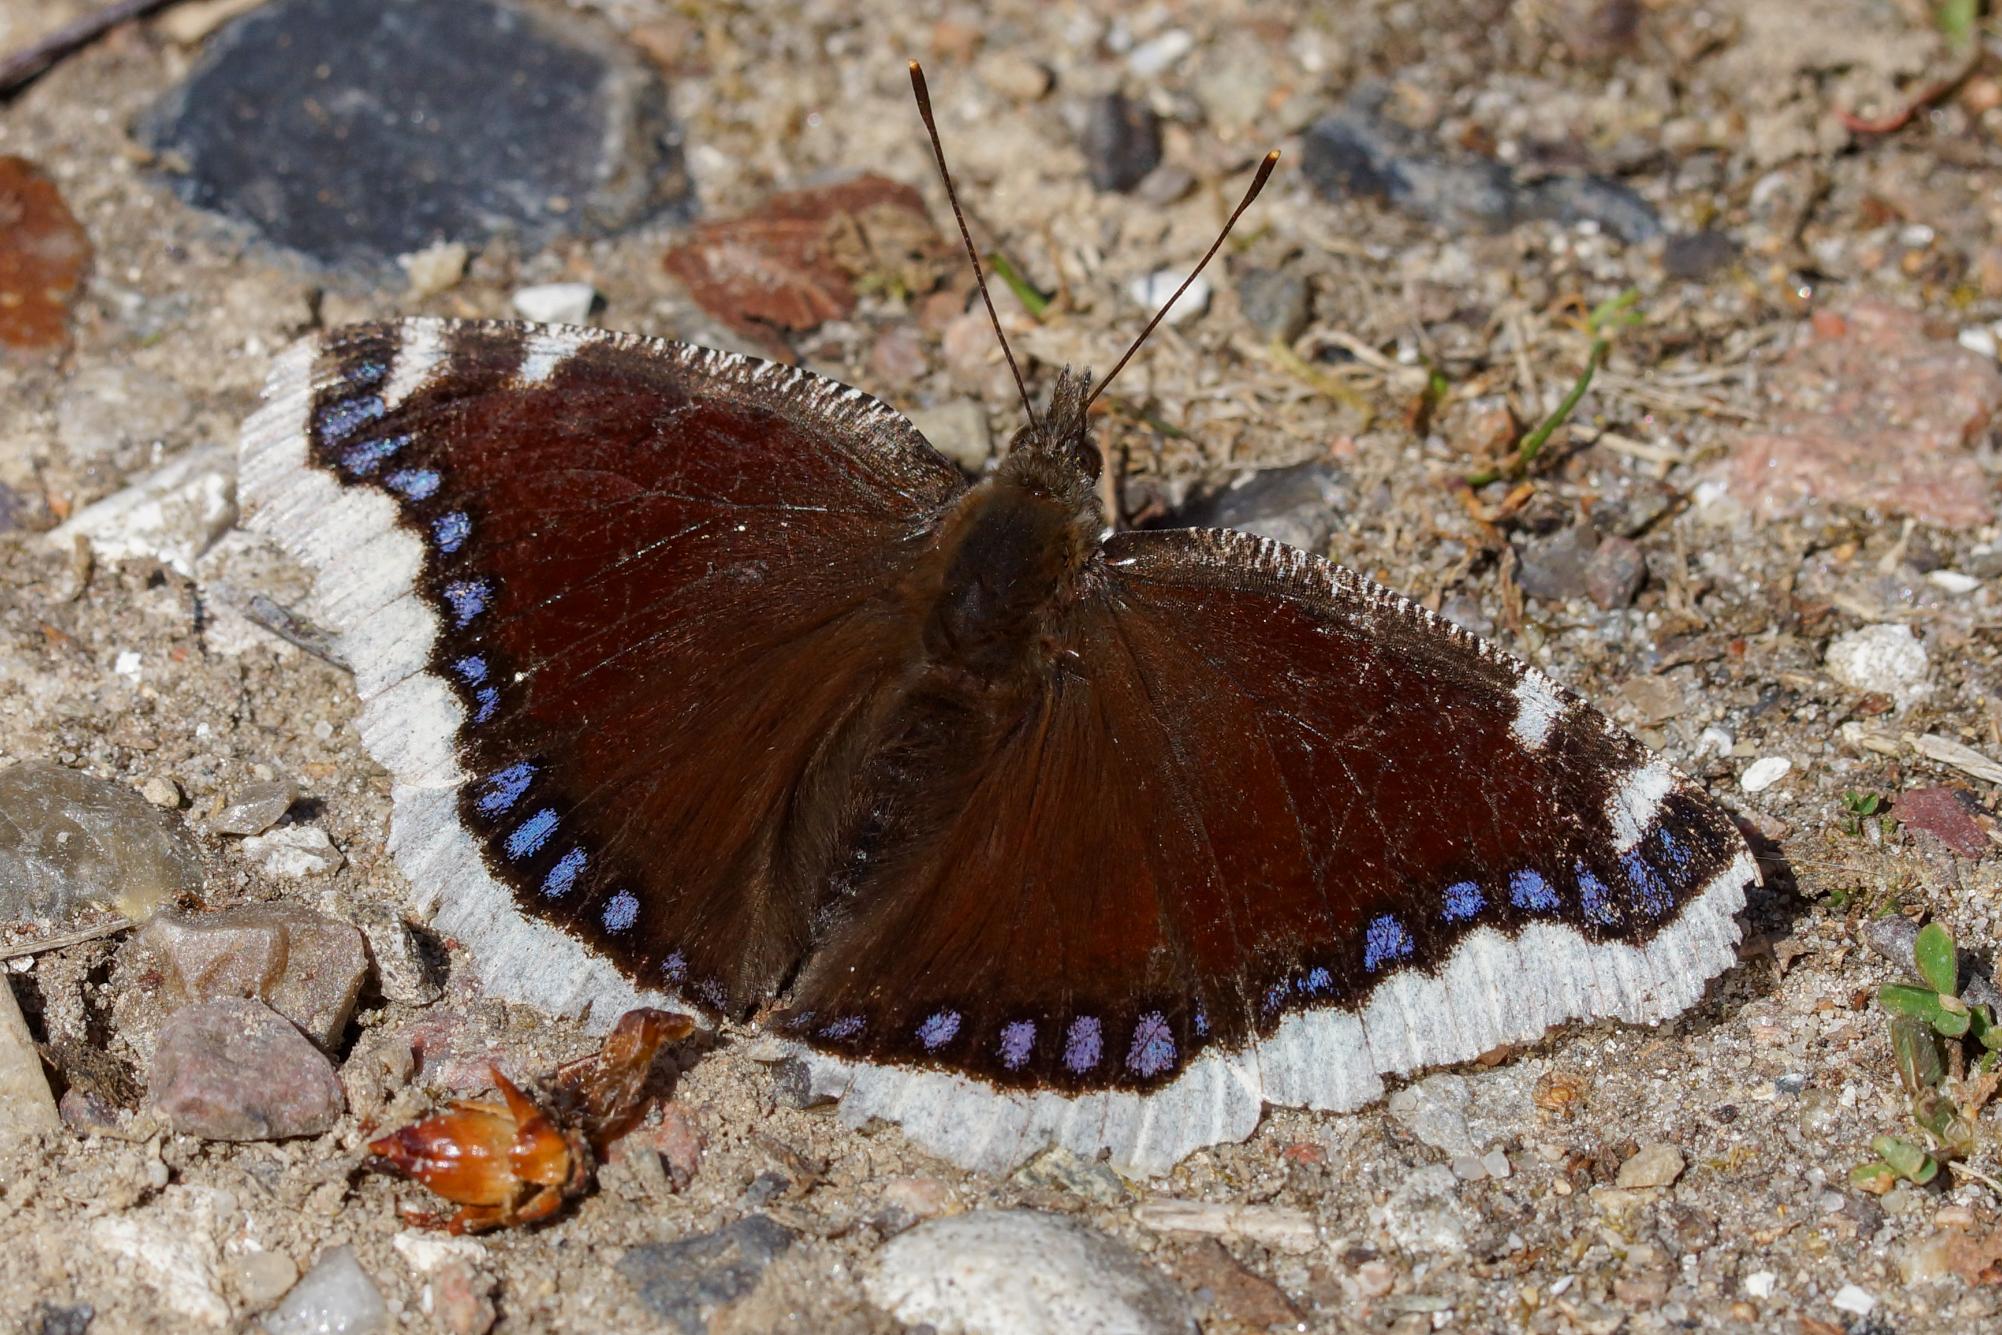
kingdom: Animalia
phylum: Arthropoda
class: Insecta
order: Lepidoptera
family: Nymphalidae
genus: Nymphalis
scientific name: Nymphalis antiopa
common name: Sørgekåbe
